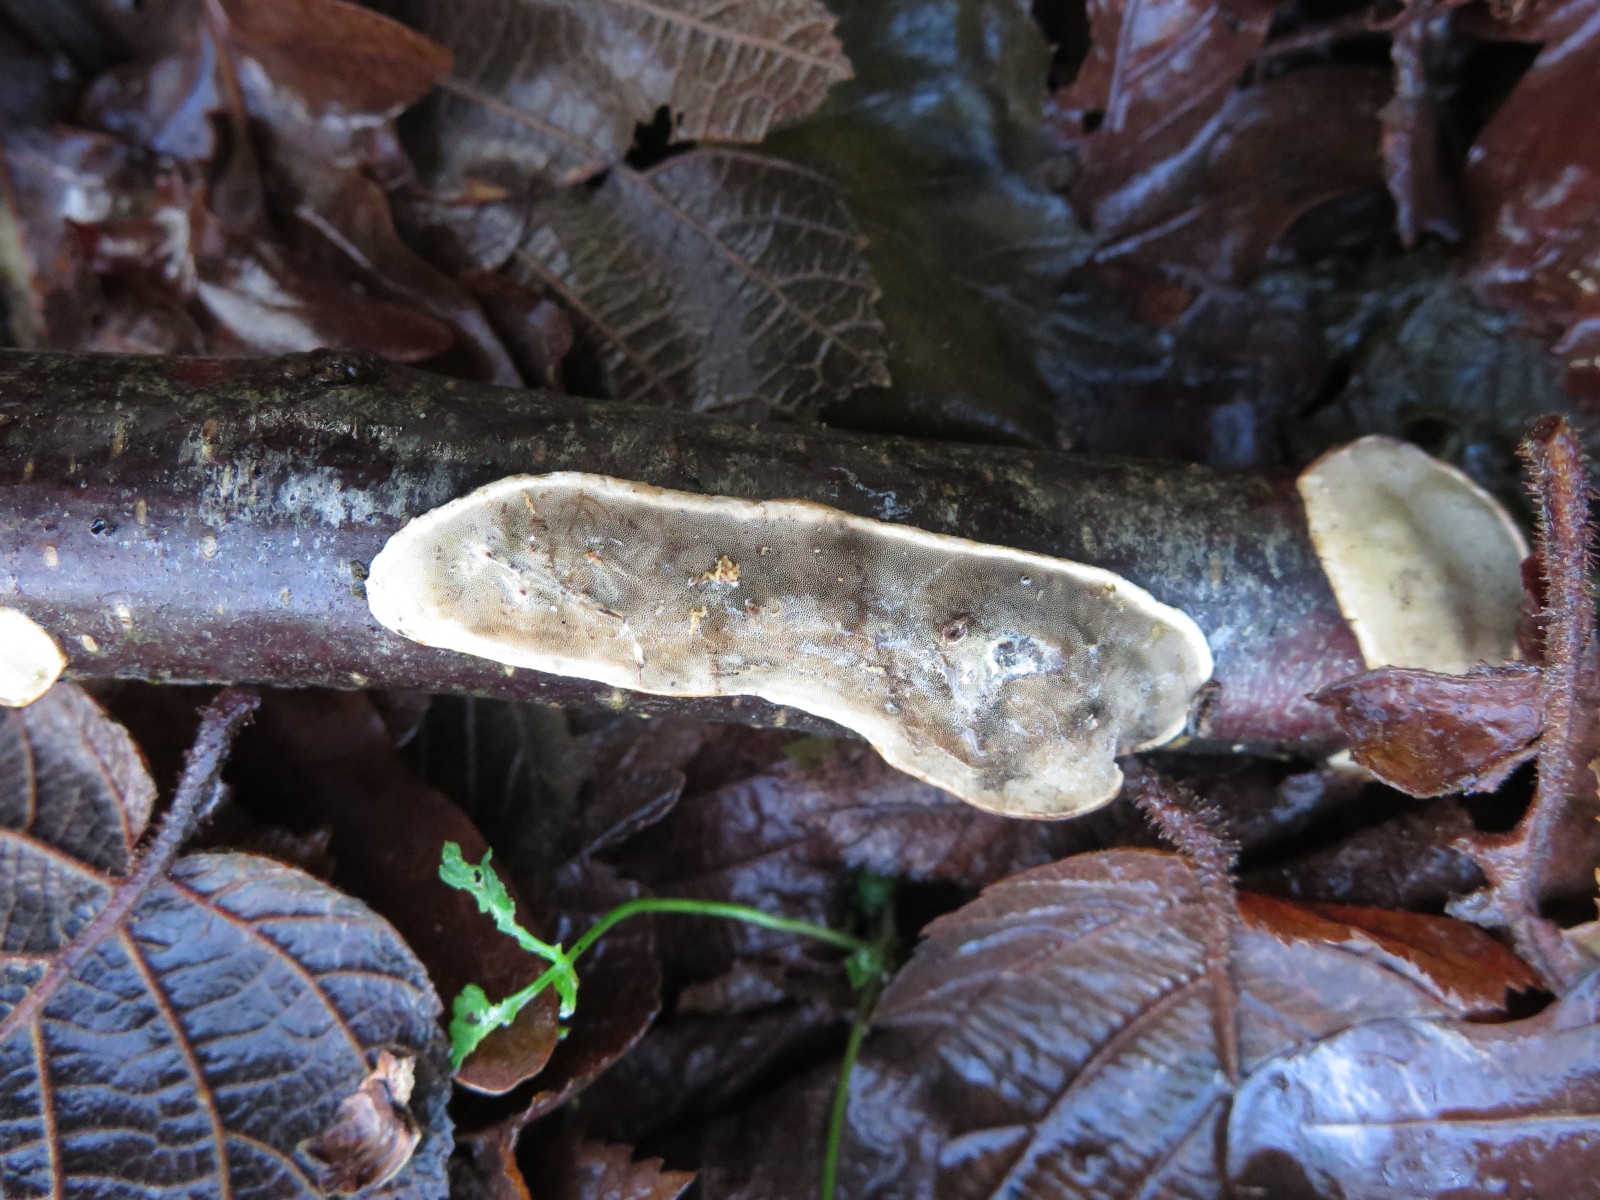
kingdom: Fungi
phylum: Basidiomycota
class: Agaricomycetes
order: Polyporales
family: Incrustoporiaceae
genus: Skeletocutis
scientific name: Skeletocutis nemoralis
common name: stor krystalporesvamp
